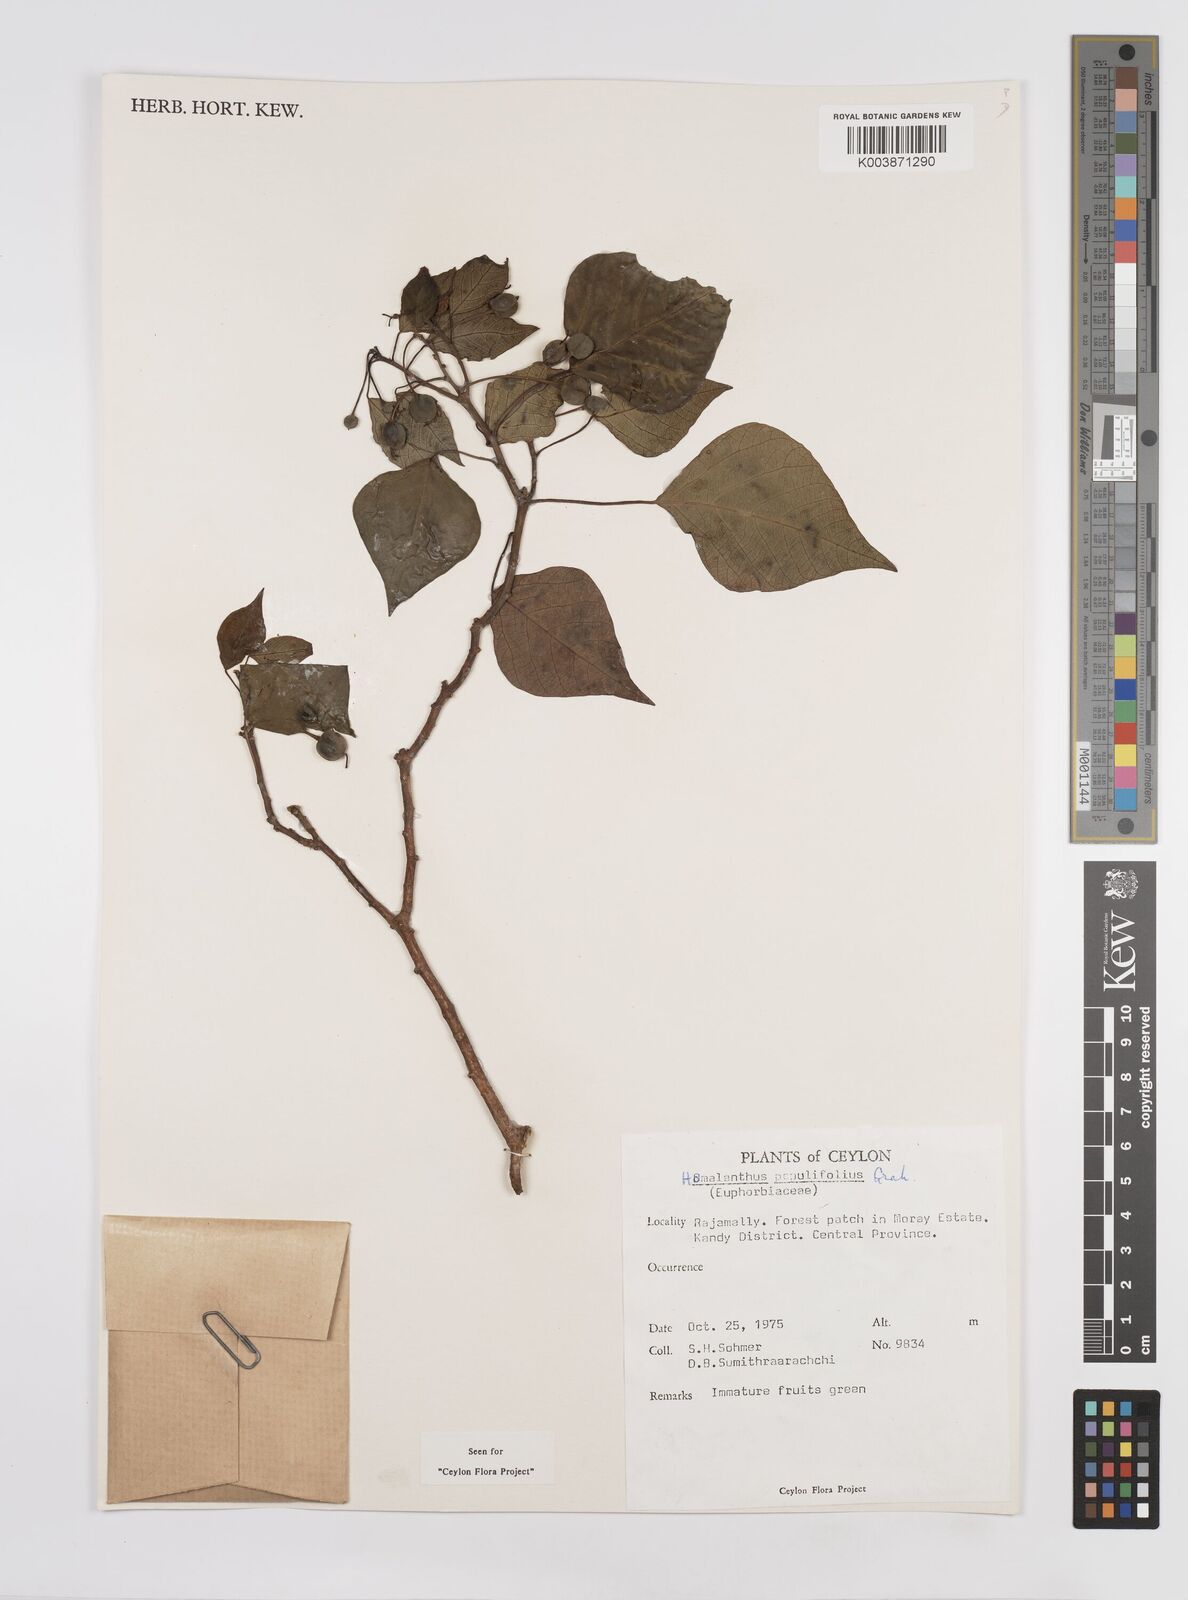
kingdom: Plantae
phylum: Tracheophyta
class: Magnoliopsida
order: Malpighiales
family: Euphorbiaceae
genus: Homalanthus
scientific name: Homalanthus populneus
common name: Spurge
